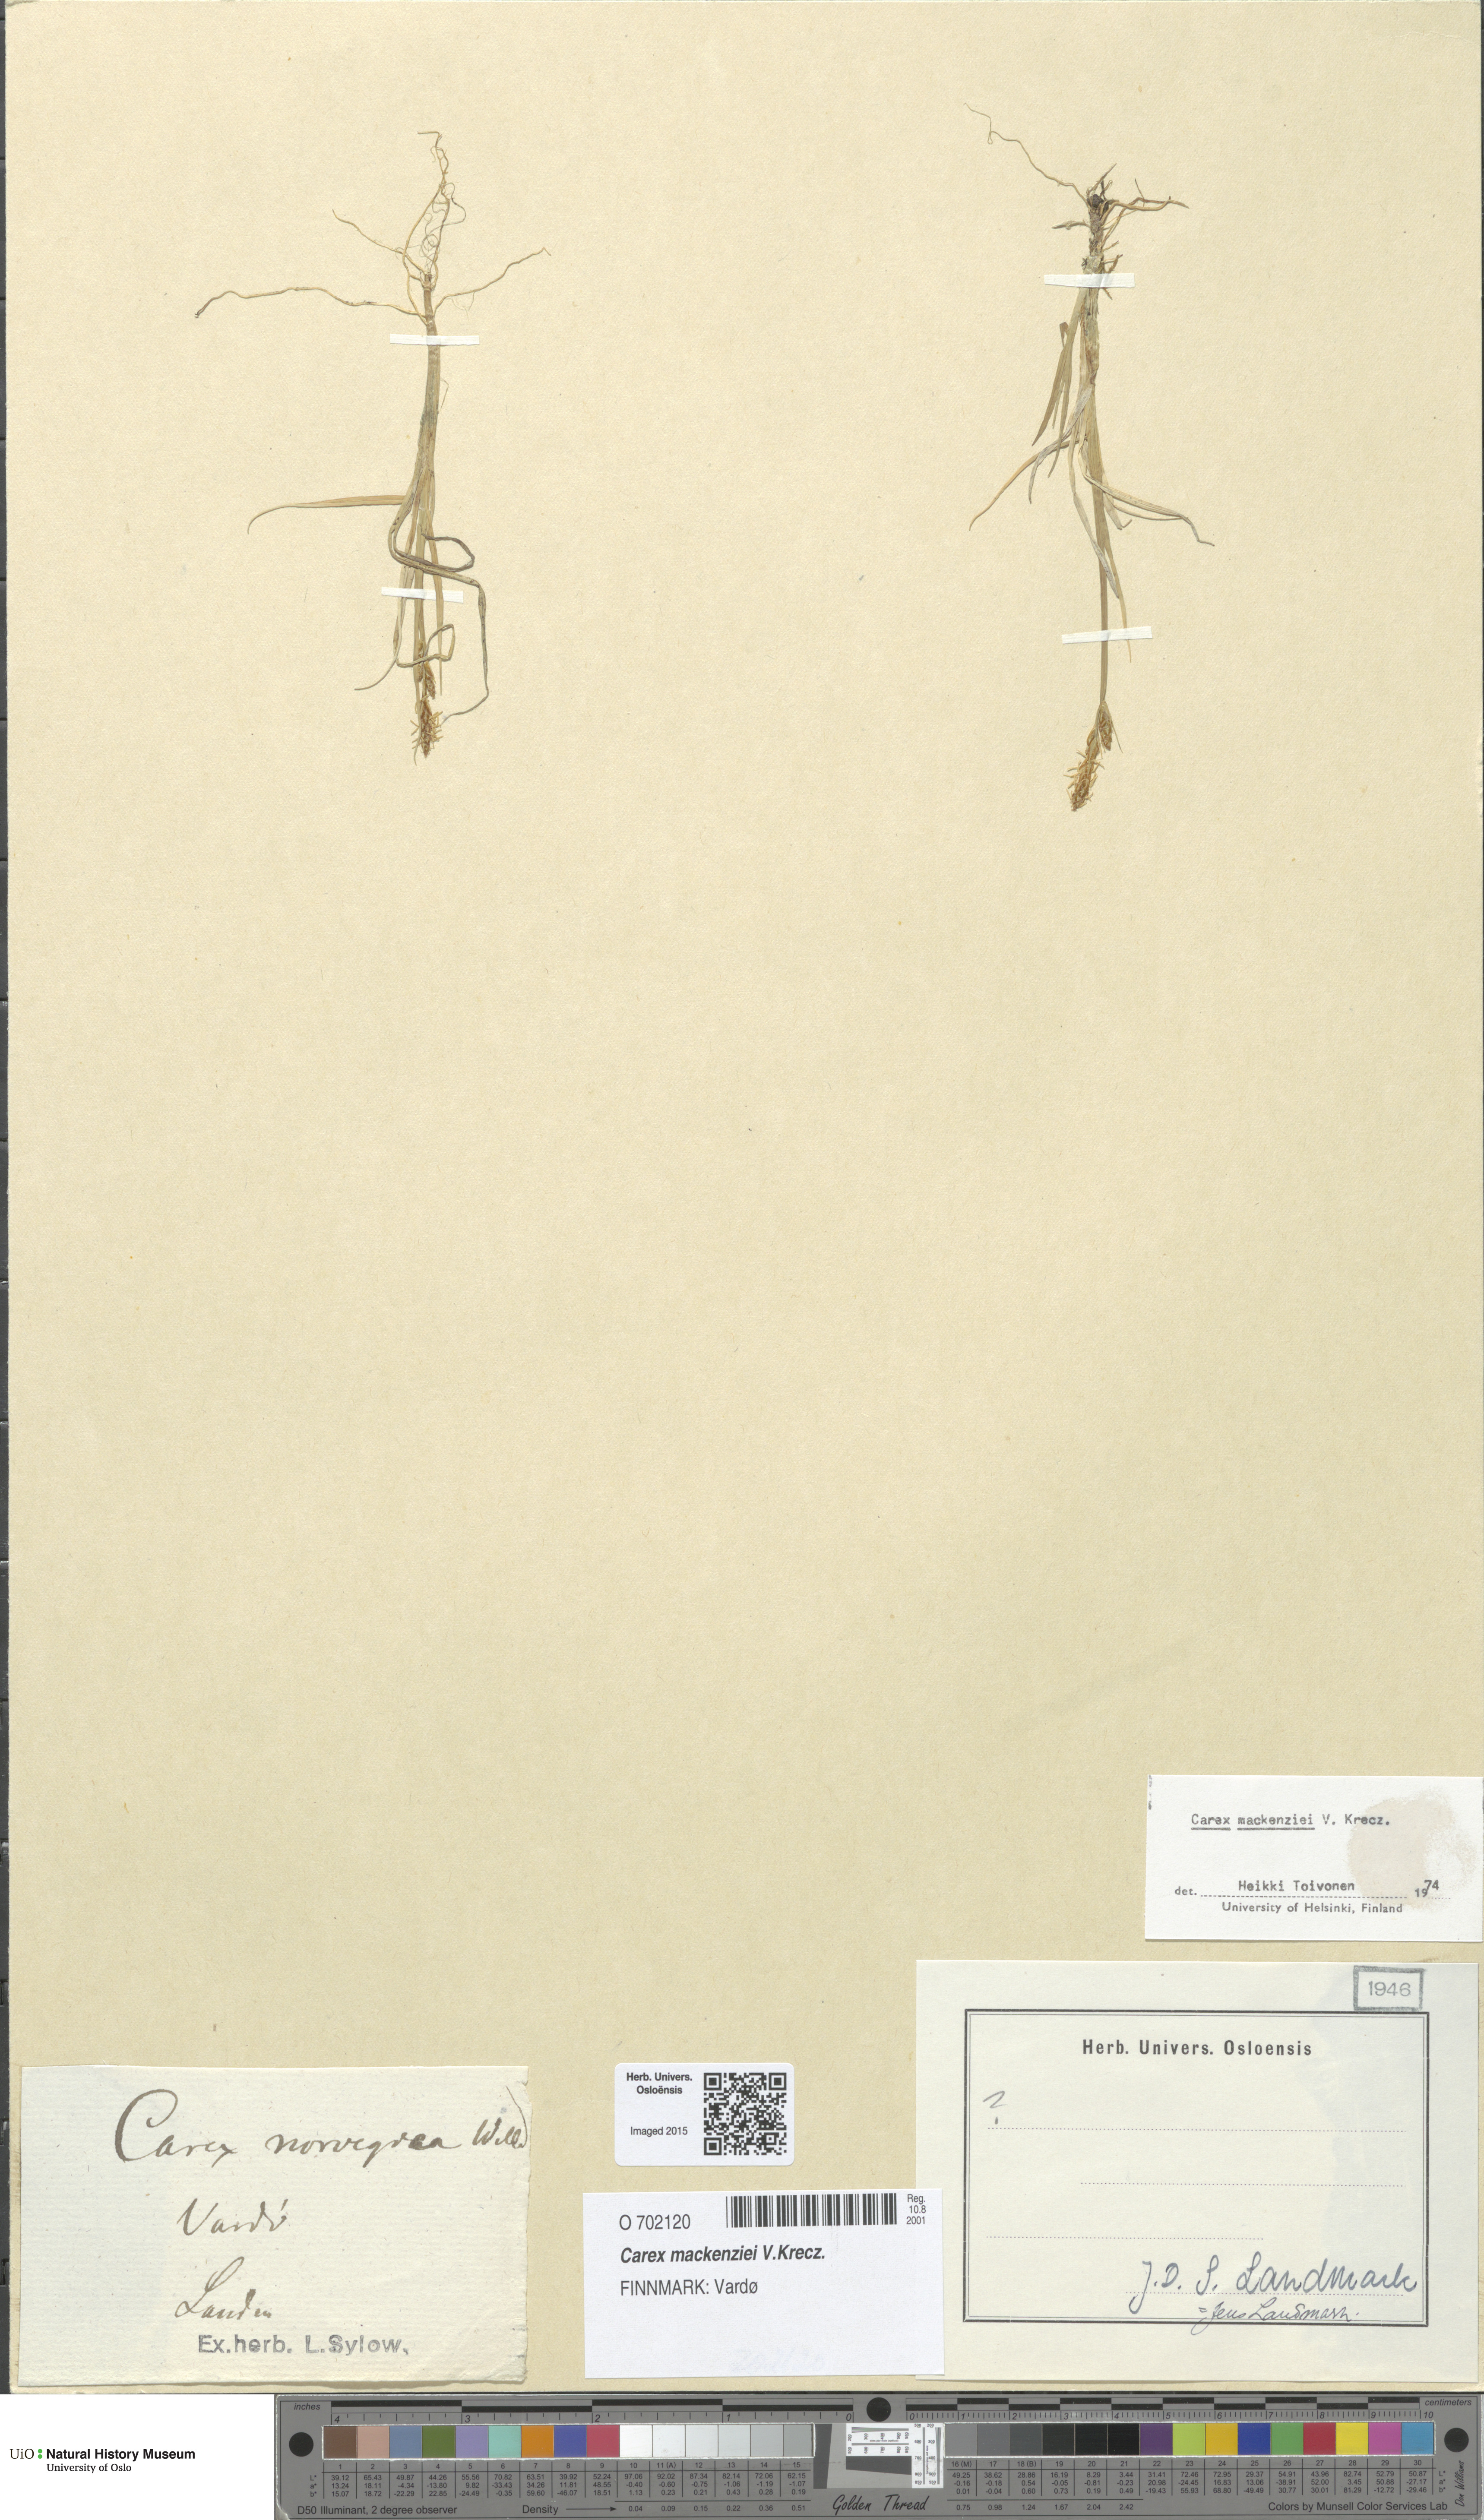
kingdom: Plantae
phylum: Tracheophyta
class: Liliopsida
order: Poales
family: Cyperaceae
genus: Carex
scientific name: Carex mackenziei
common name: Mackenzie's sedge
